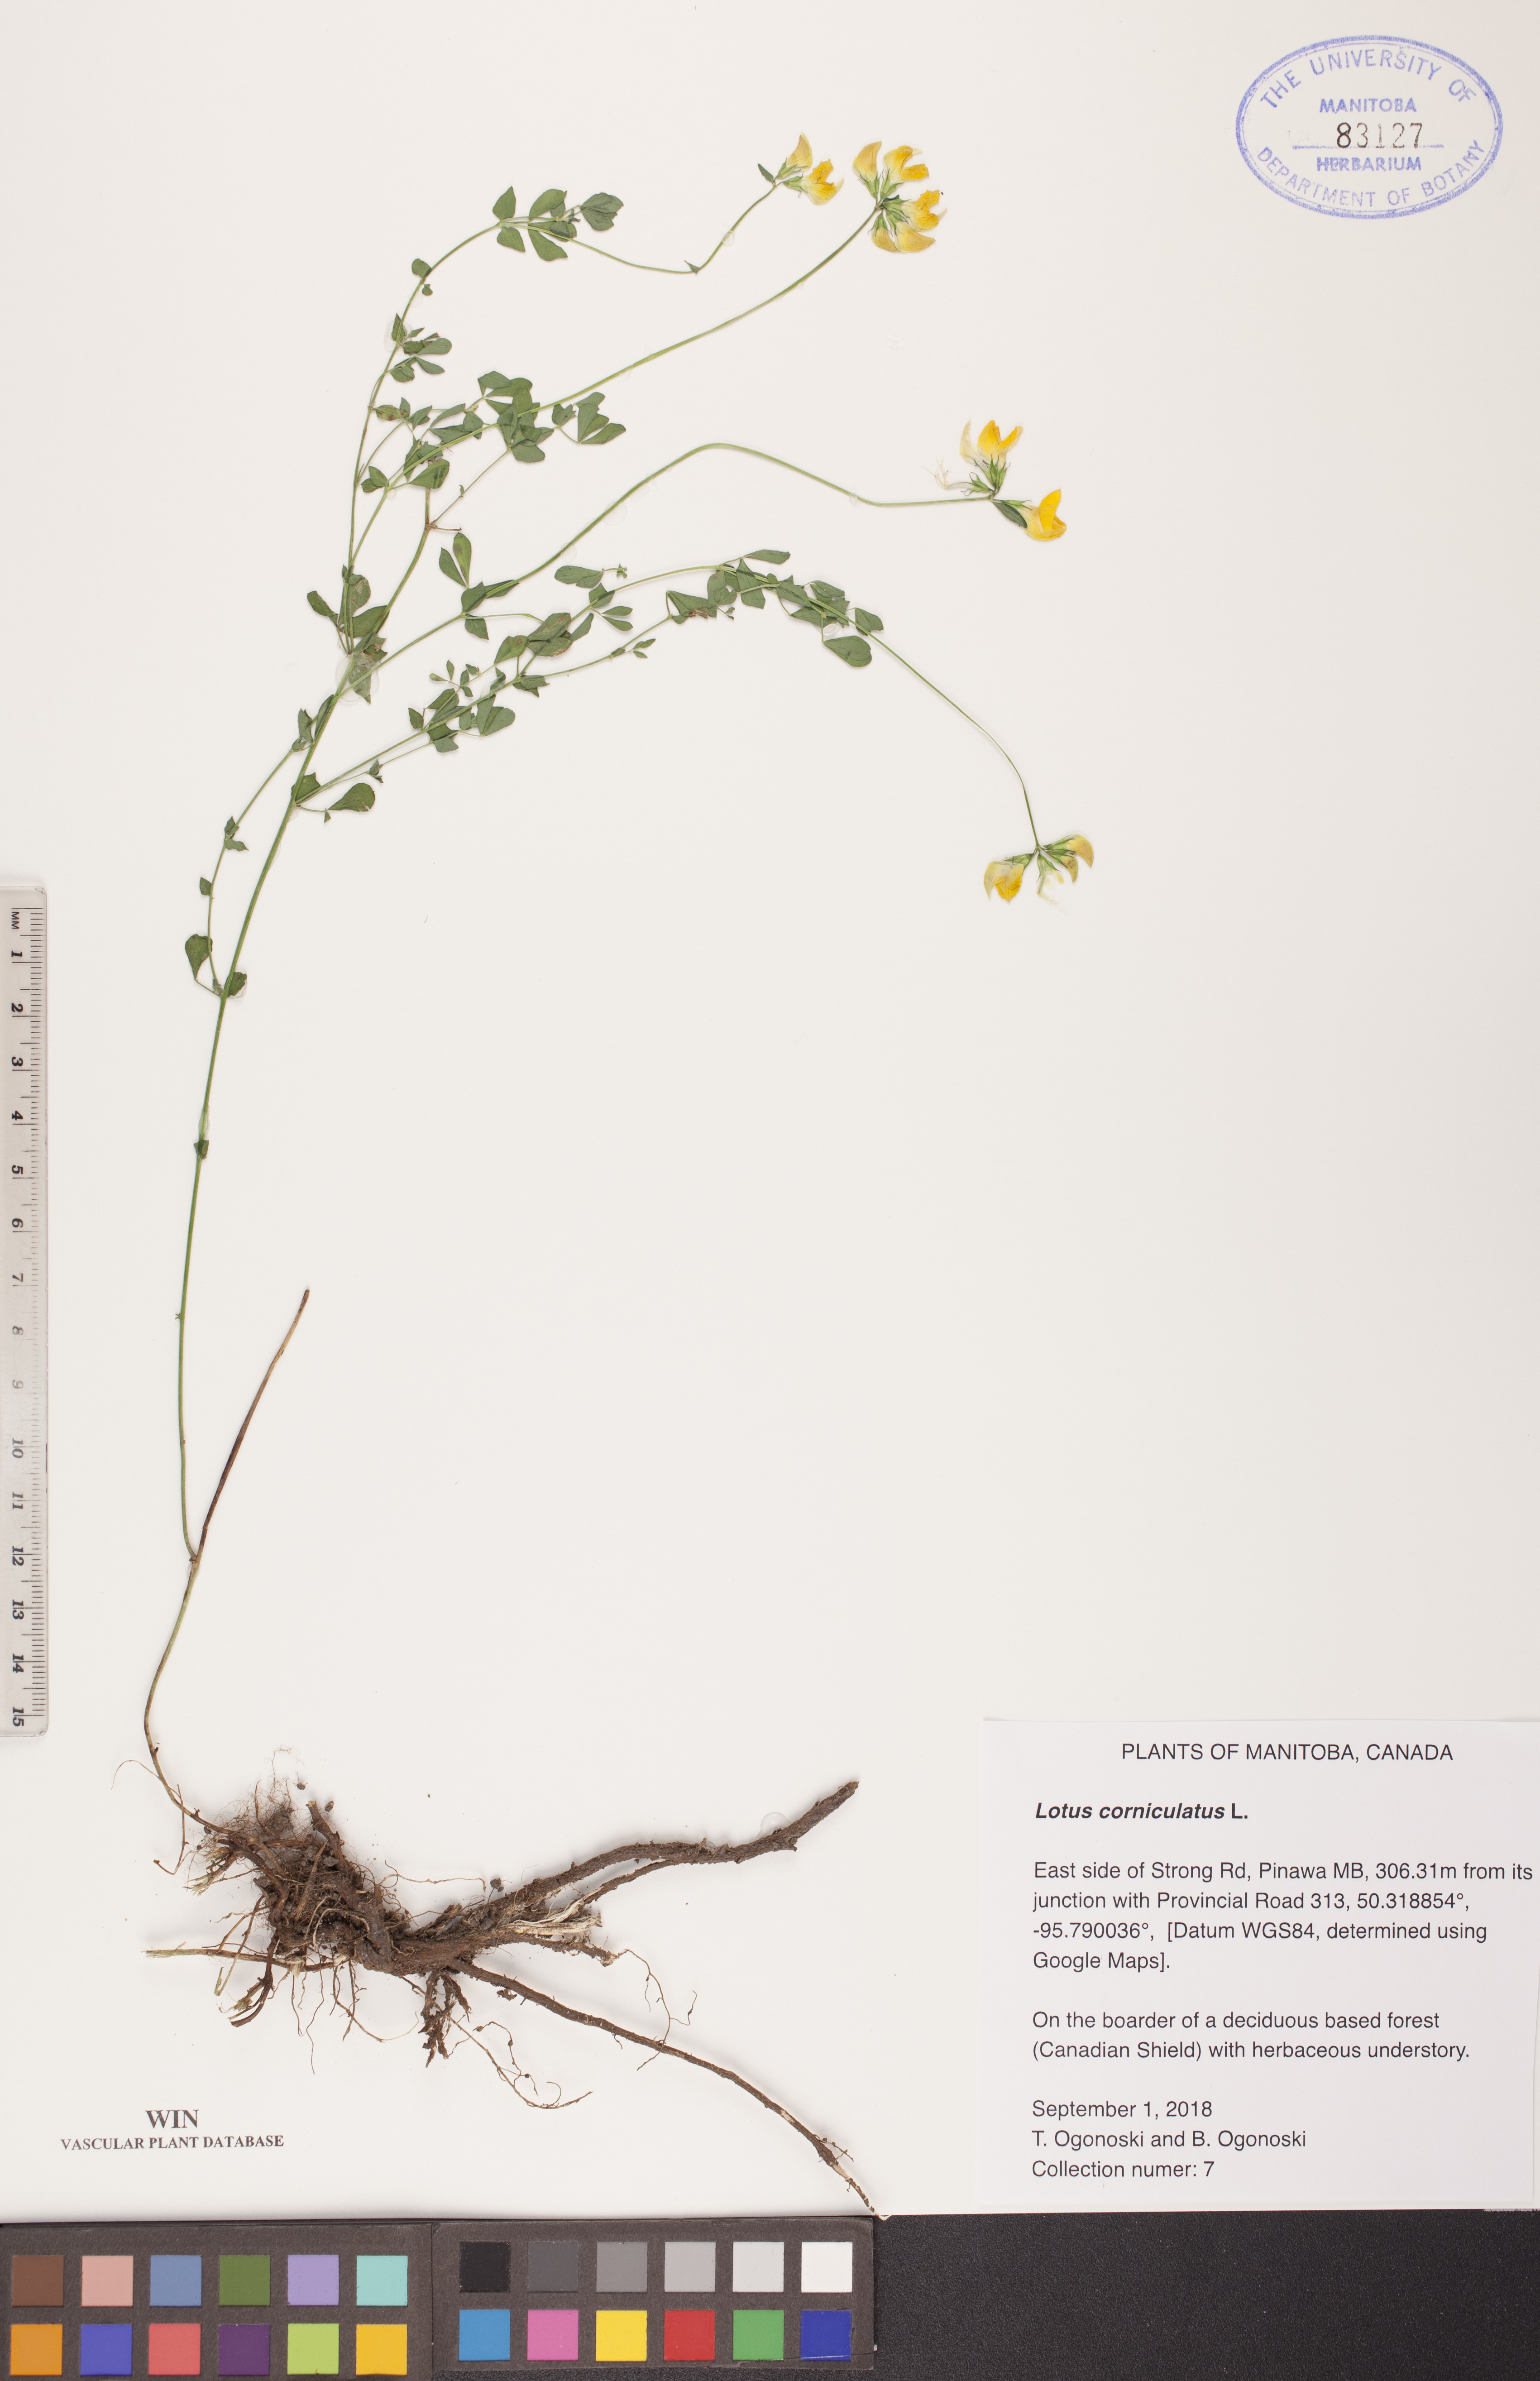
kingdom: Plantae
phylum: Tracheophyta
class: Magnoliopsida
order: Fabales
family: Fabaceae
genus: Lotus
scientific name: Lotus corniculatus
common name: Common bird's-foot-trefoil
